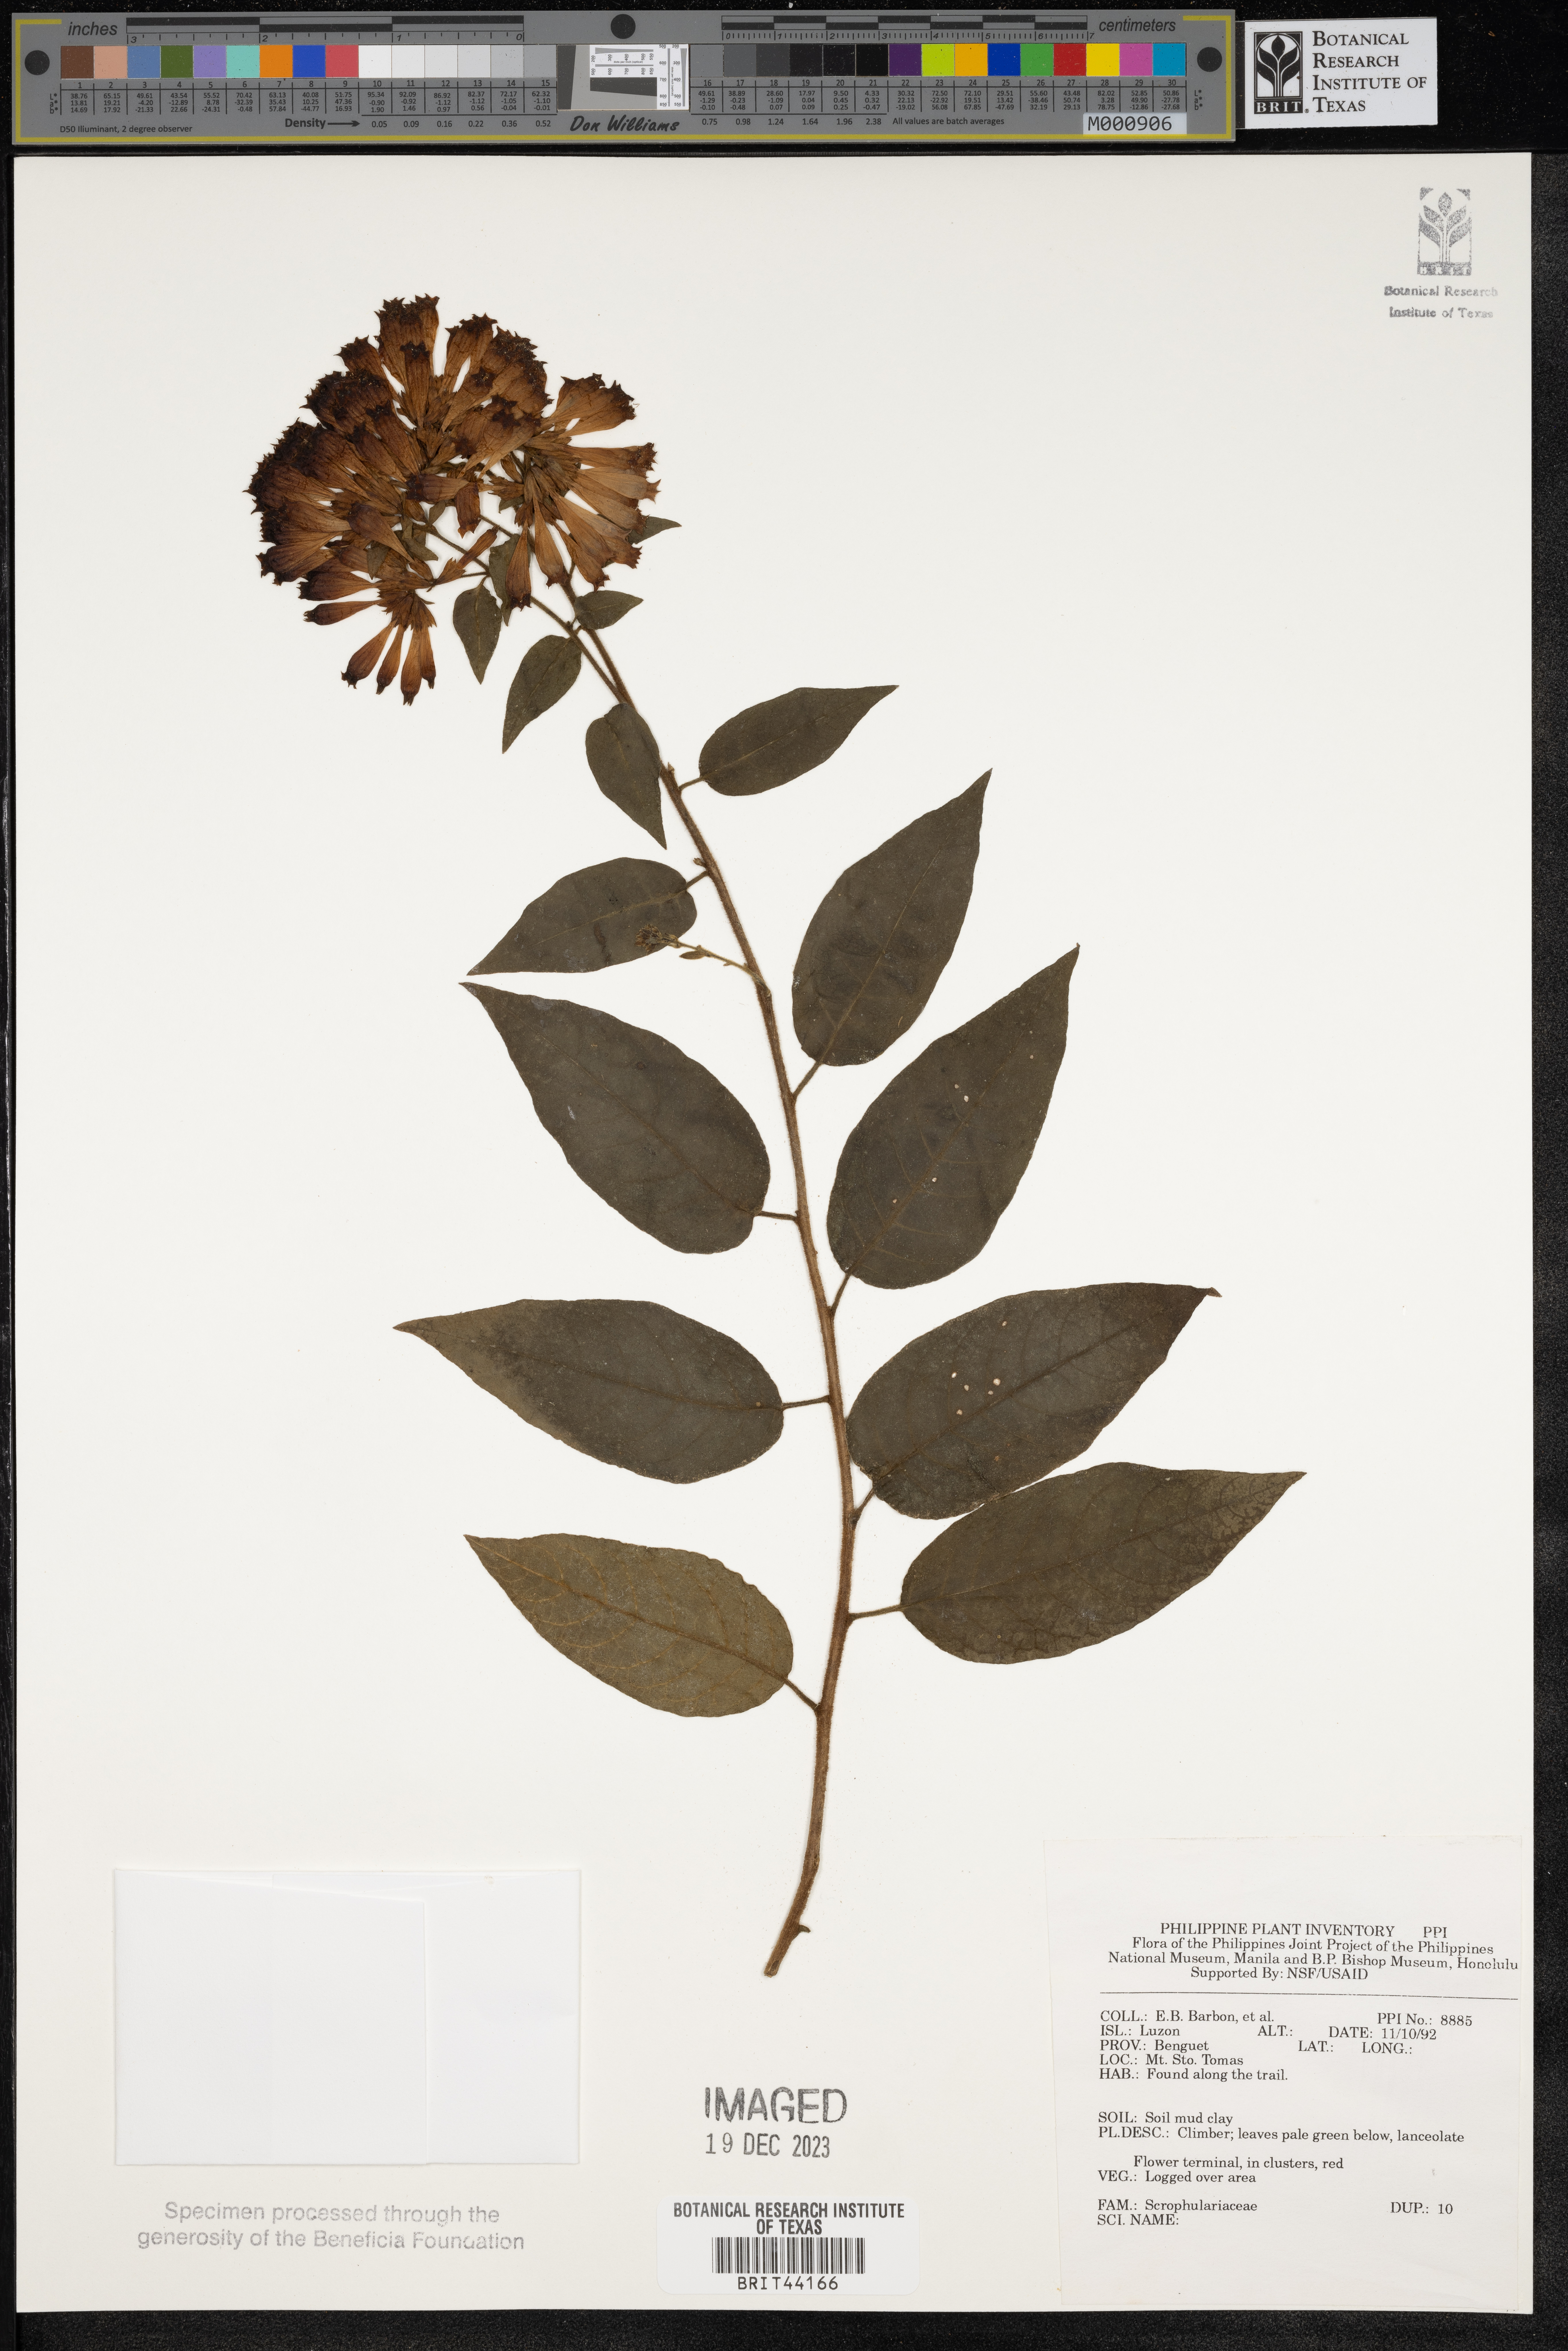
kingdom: Plantae
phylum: Tracheophyta
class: Magnoliopsida
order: Lamiales
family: Scrophulariaceae
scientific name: Scrophulariaceae
